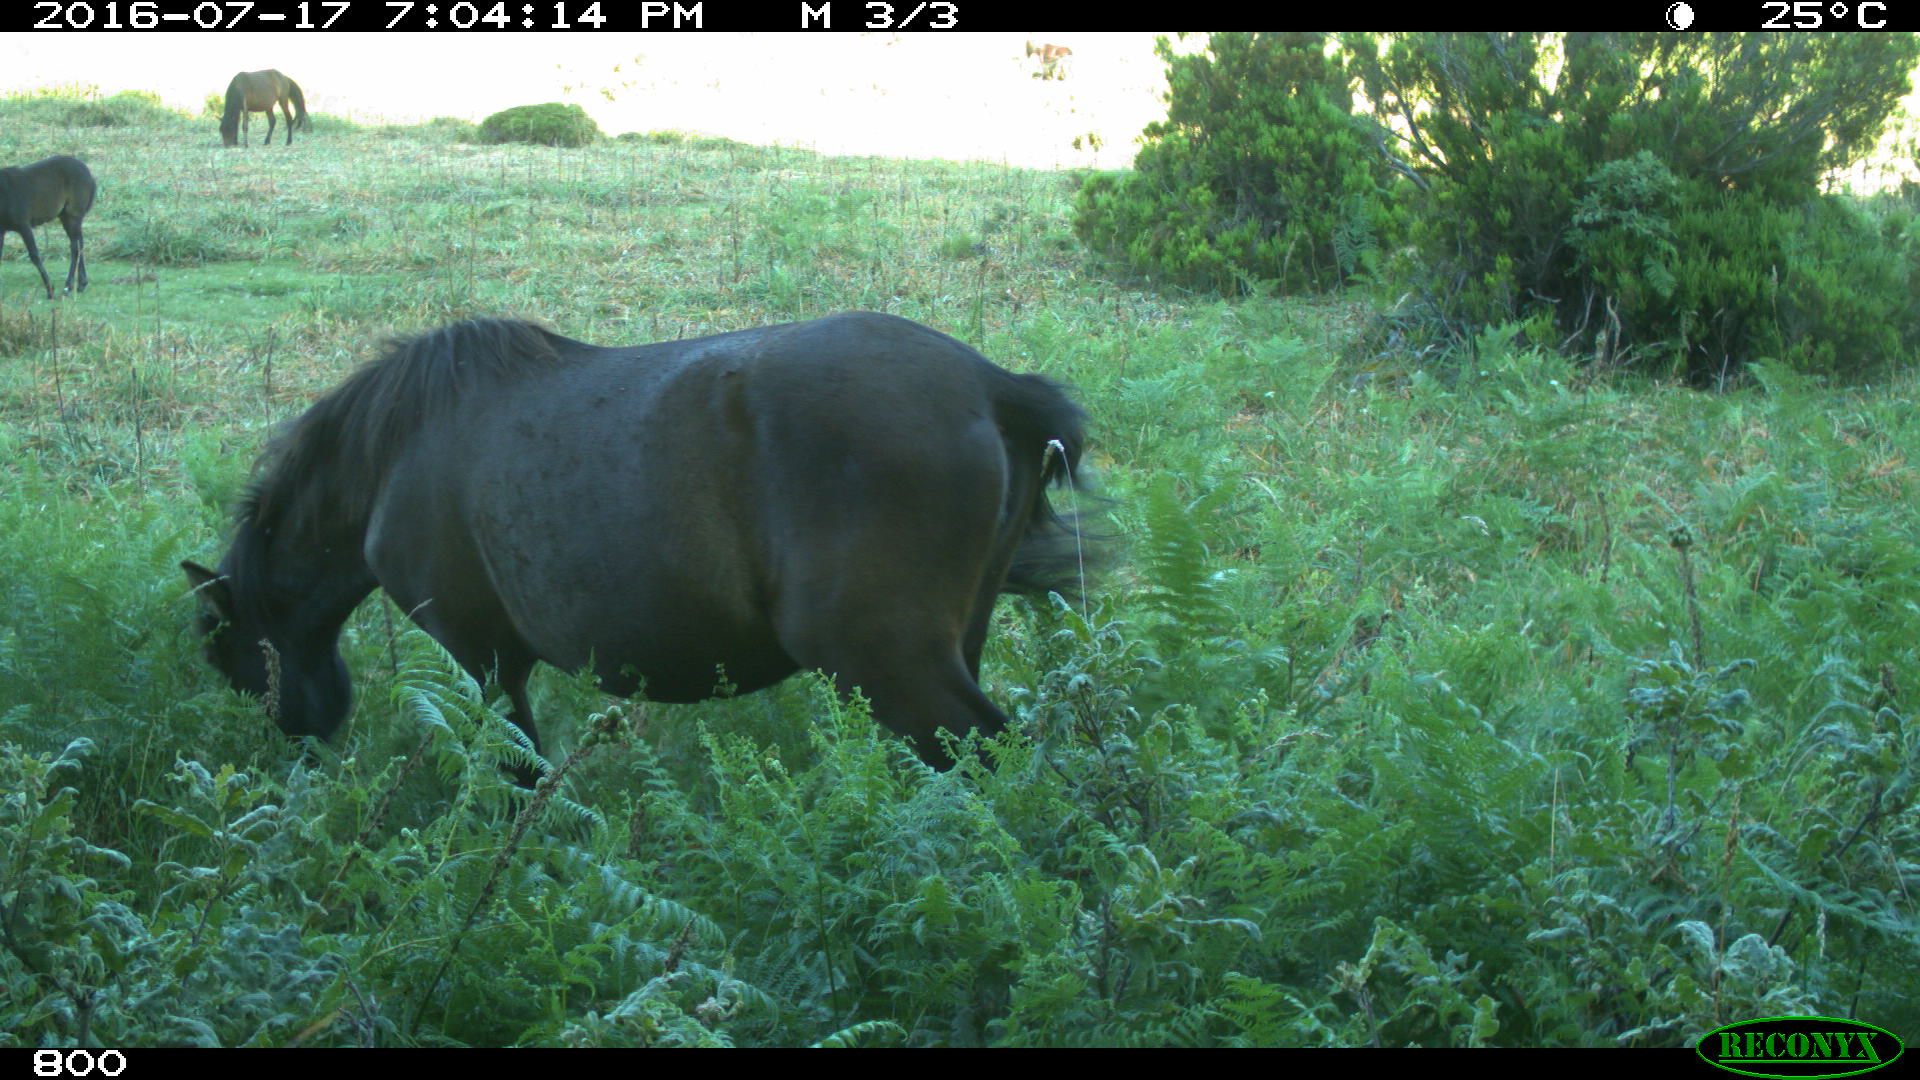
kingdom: Animalia
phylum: Chordata
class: Mammalia
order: Perissodactyla
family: Equidae
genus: Equus
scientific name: Equus caballus
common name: Horse
